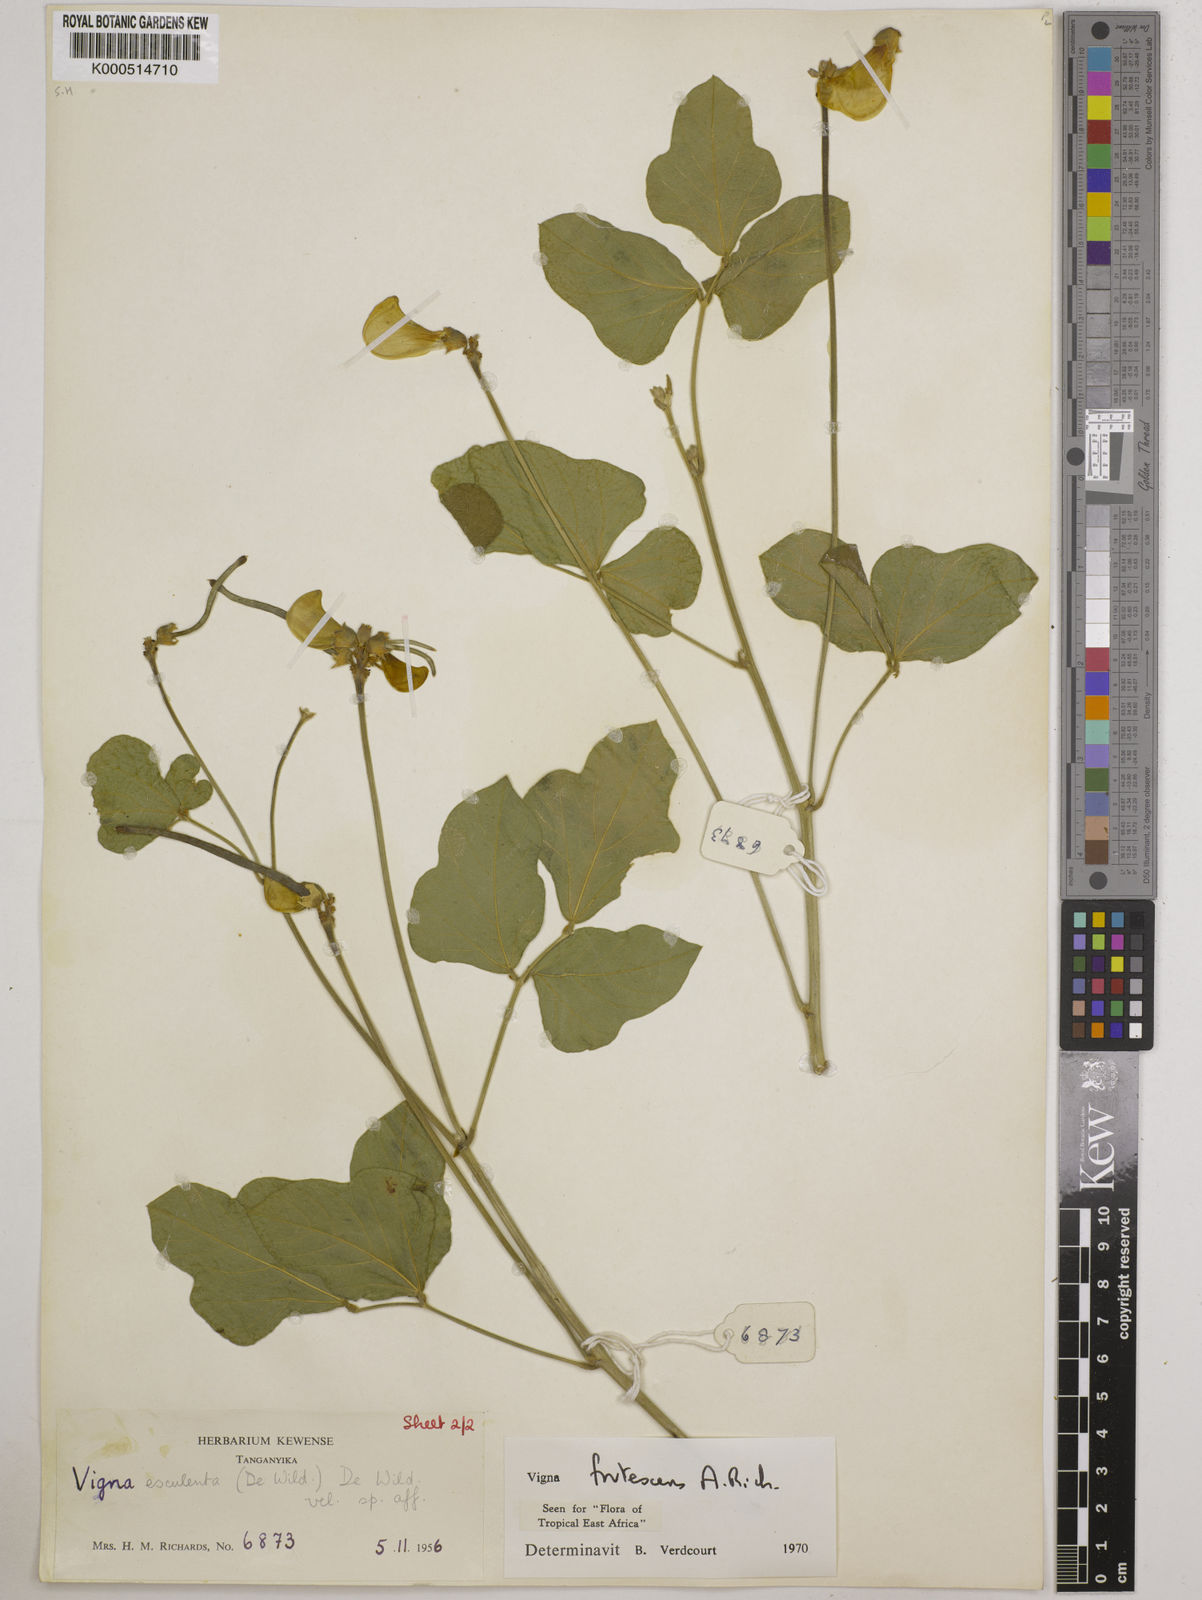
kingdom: Plantae
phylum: Tracheophyta
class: Magnoliopsida
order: Fabales
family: Fabaceae
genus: Vigna
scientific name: Vigna frutescens
